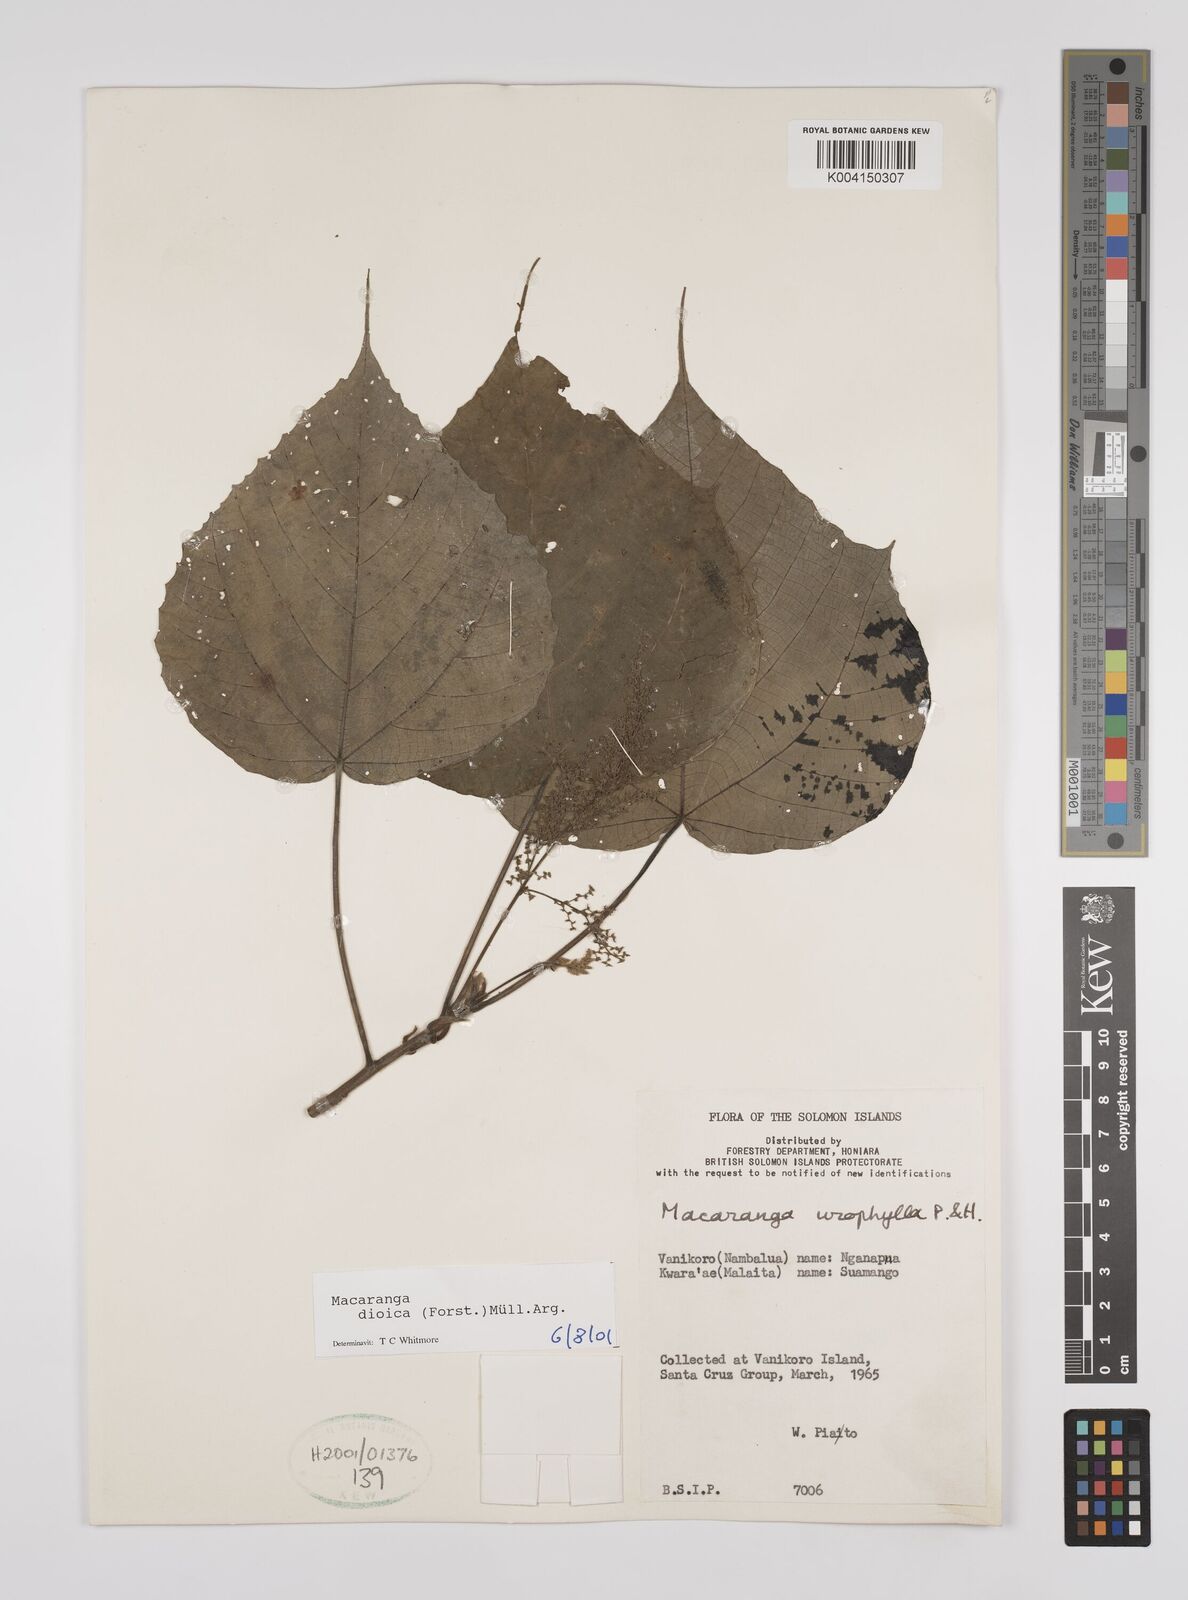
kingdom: Plantae
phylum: Tracheophyta
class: Magnoliopsida
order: Malpighiales
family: Euphorbiaceae
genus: Macaranga
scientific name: Macaranga dioica
